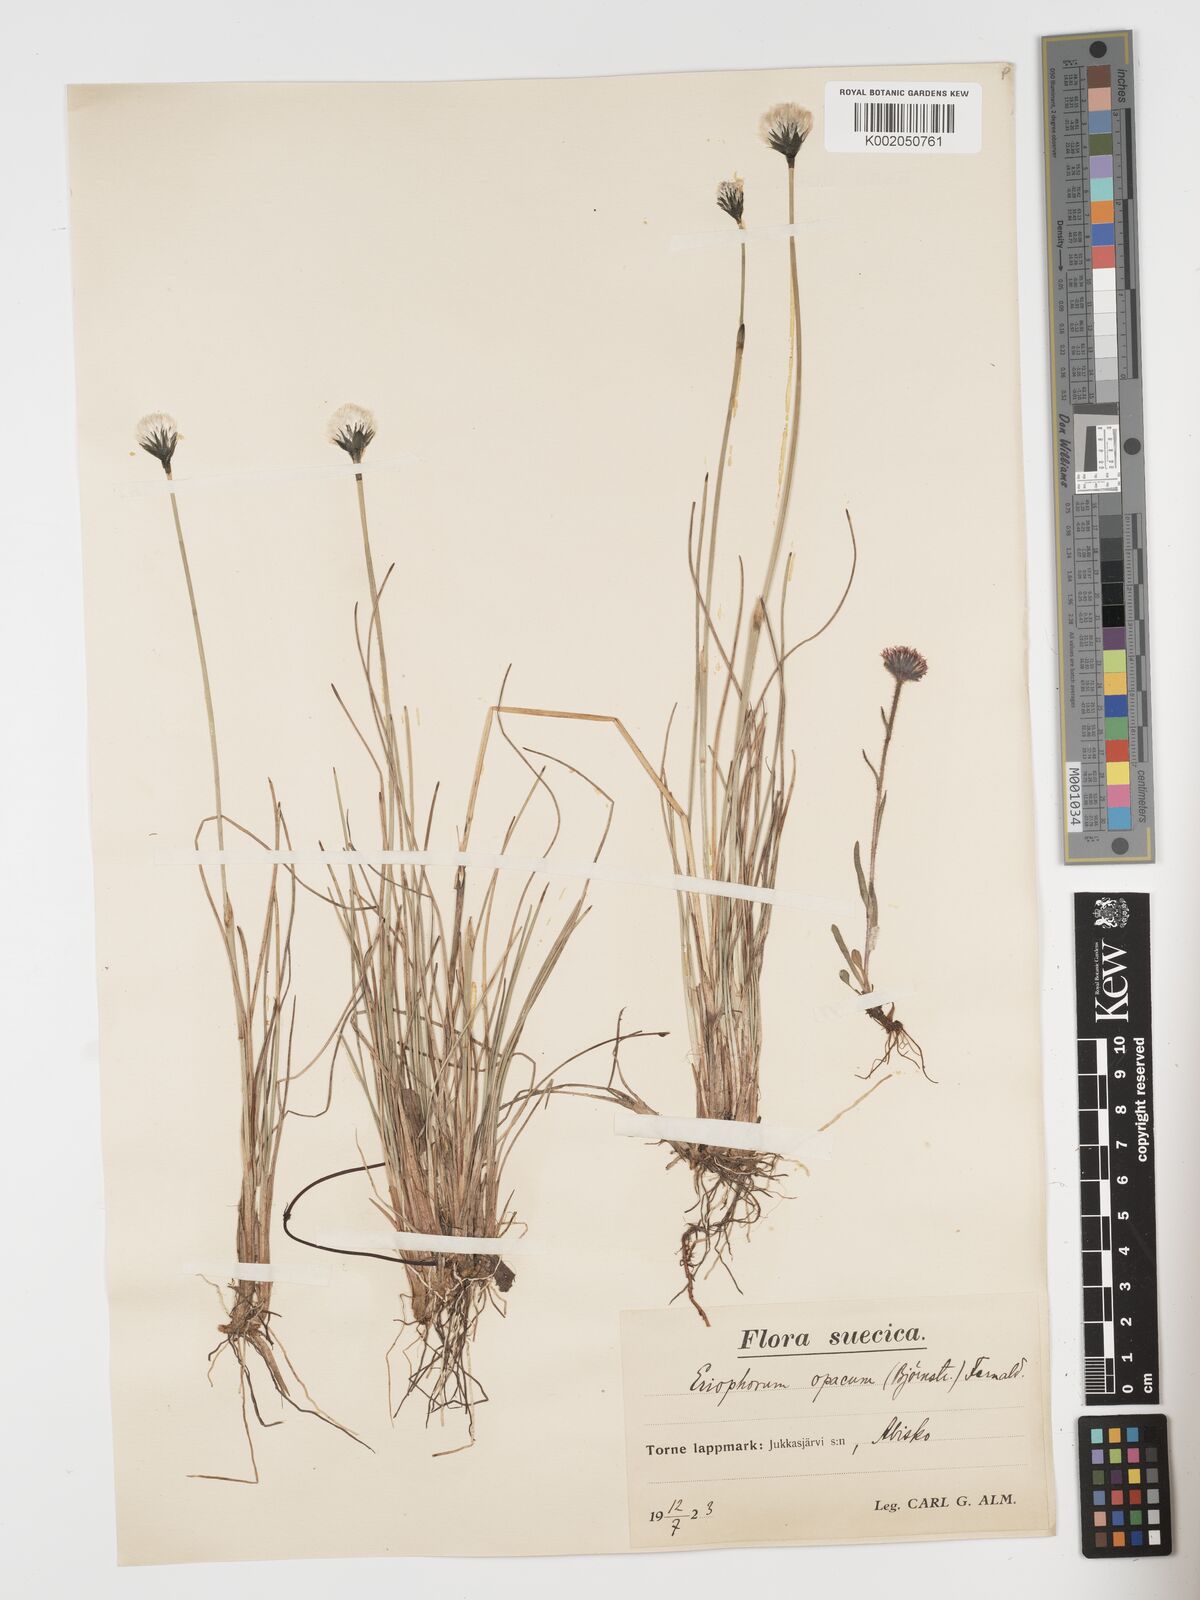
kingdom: Plantae
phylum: Tracheophyta
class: Liliopsida
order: Poales
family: Cyperaceae
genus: Eriophorum
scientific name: Eriophorum brachyantherum
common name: Closed-sheathed cottongrass
